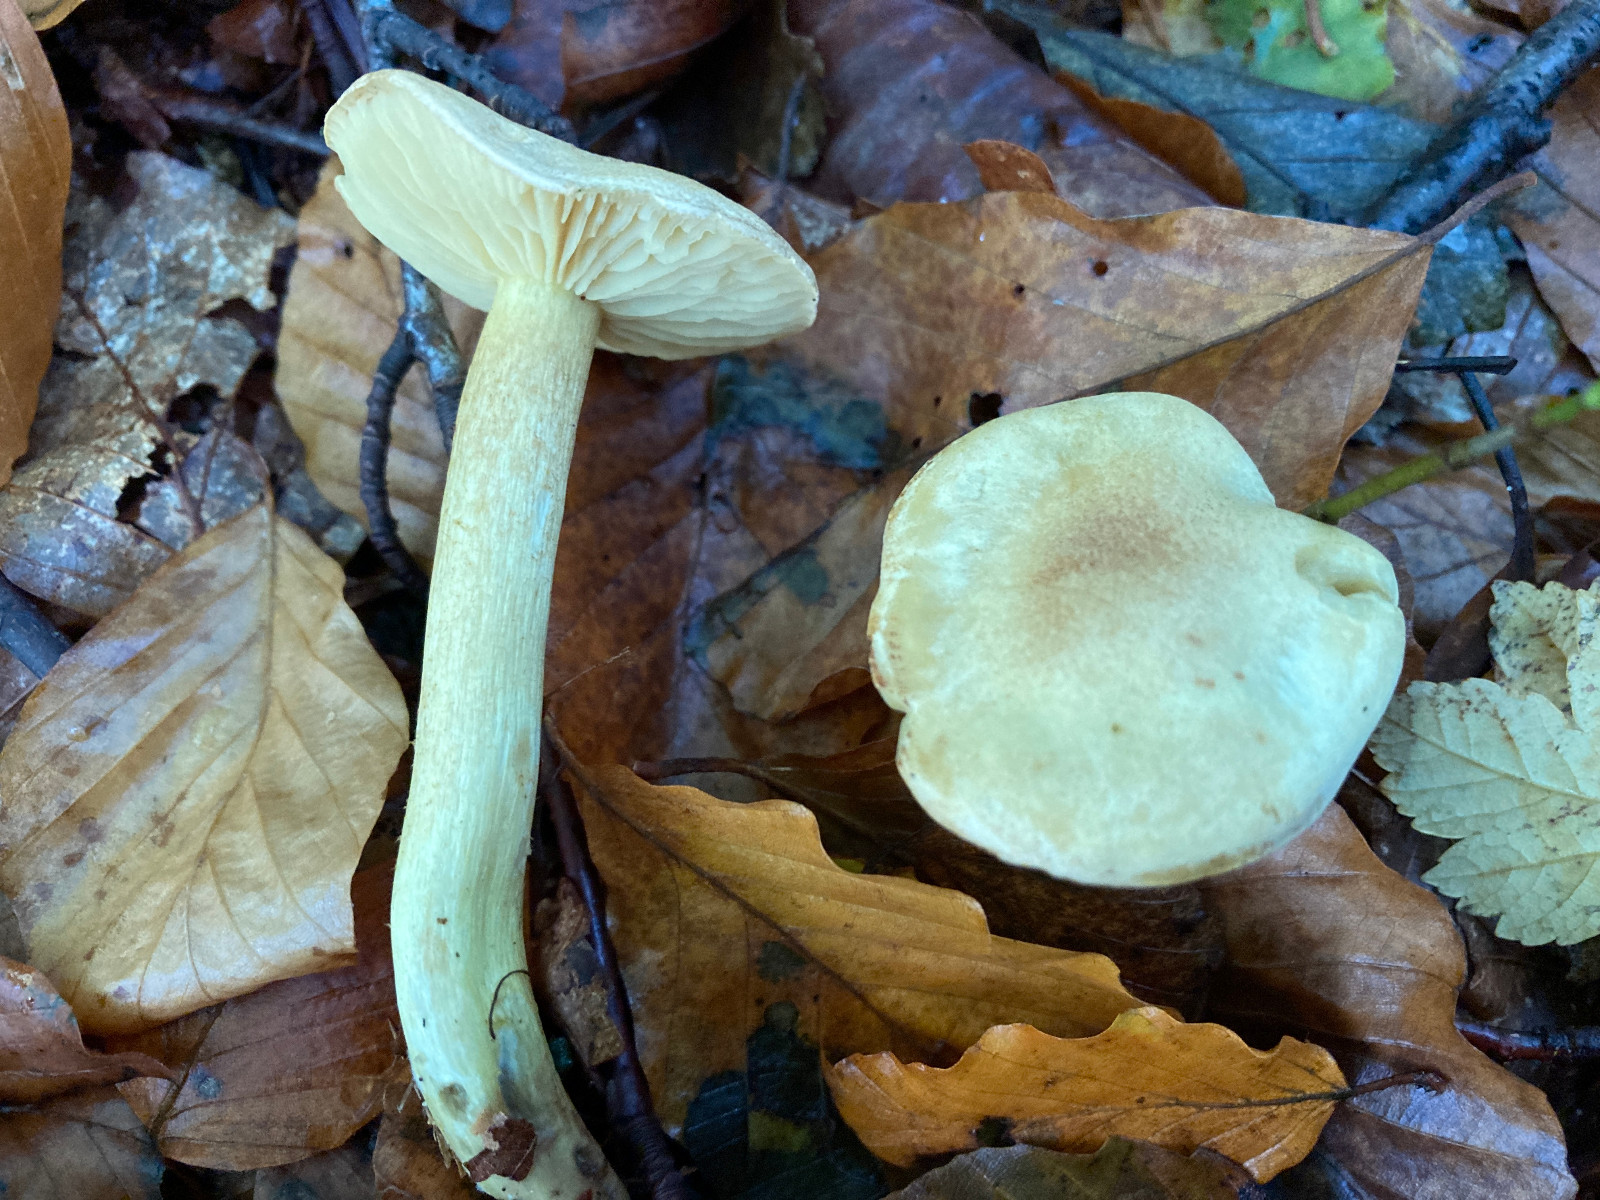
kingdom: Fungi
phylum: Basidiomycota
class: Agaricomycetes
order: Agaricales
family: Tricholomataceae
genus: Tricholoma
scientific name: Tricholoma stiparophyllum
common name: hvid ridderhat
